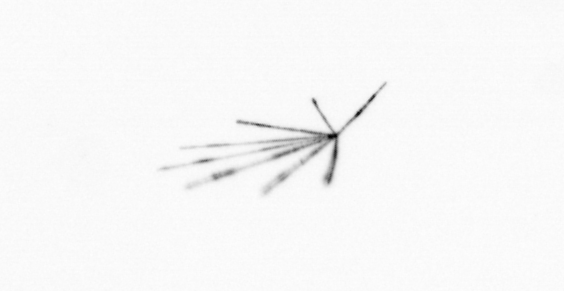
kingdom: Chromista
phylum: Ochrophyta
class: Bacillariophyceae
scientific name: Bacillariophyceae
